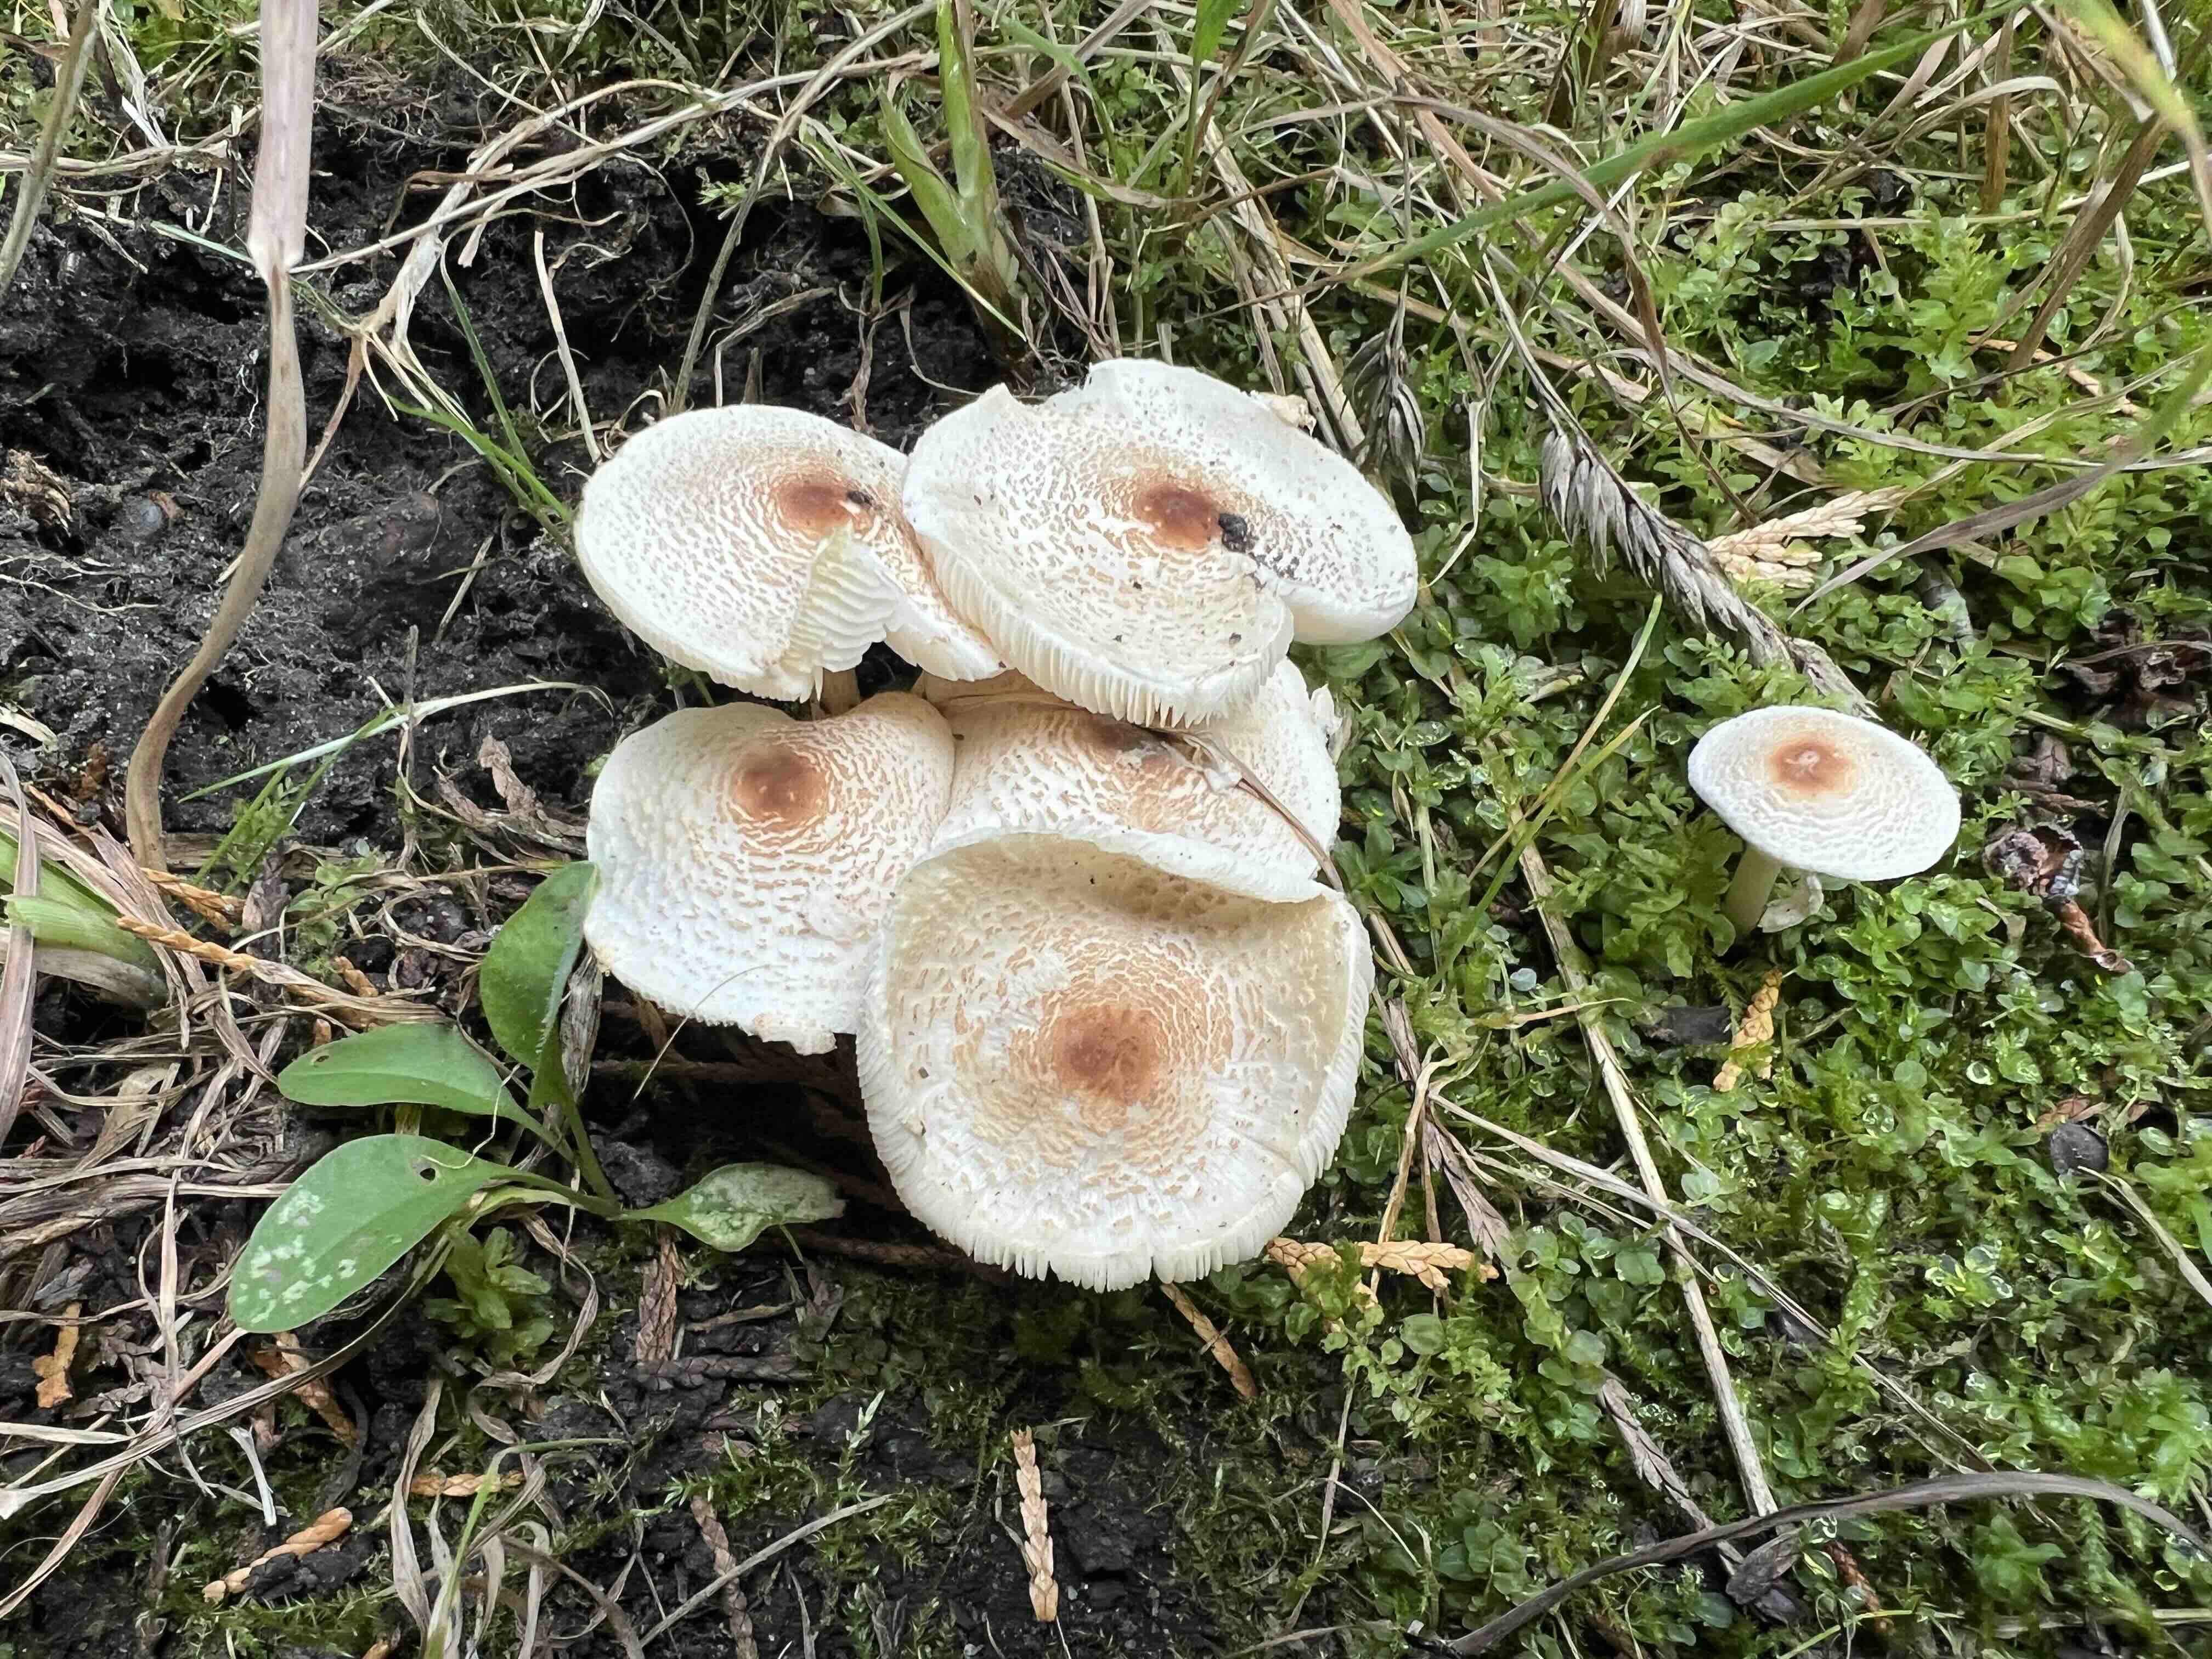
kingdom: Fungi
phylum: Basidiomycota
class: Agaricomycetes
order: Agaricales
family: Agaricaceae
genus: Lepiota
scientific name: Lepiota cristata
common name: stinkende parasolhat
